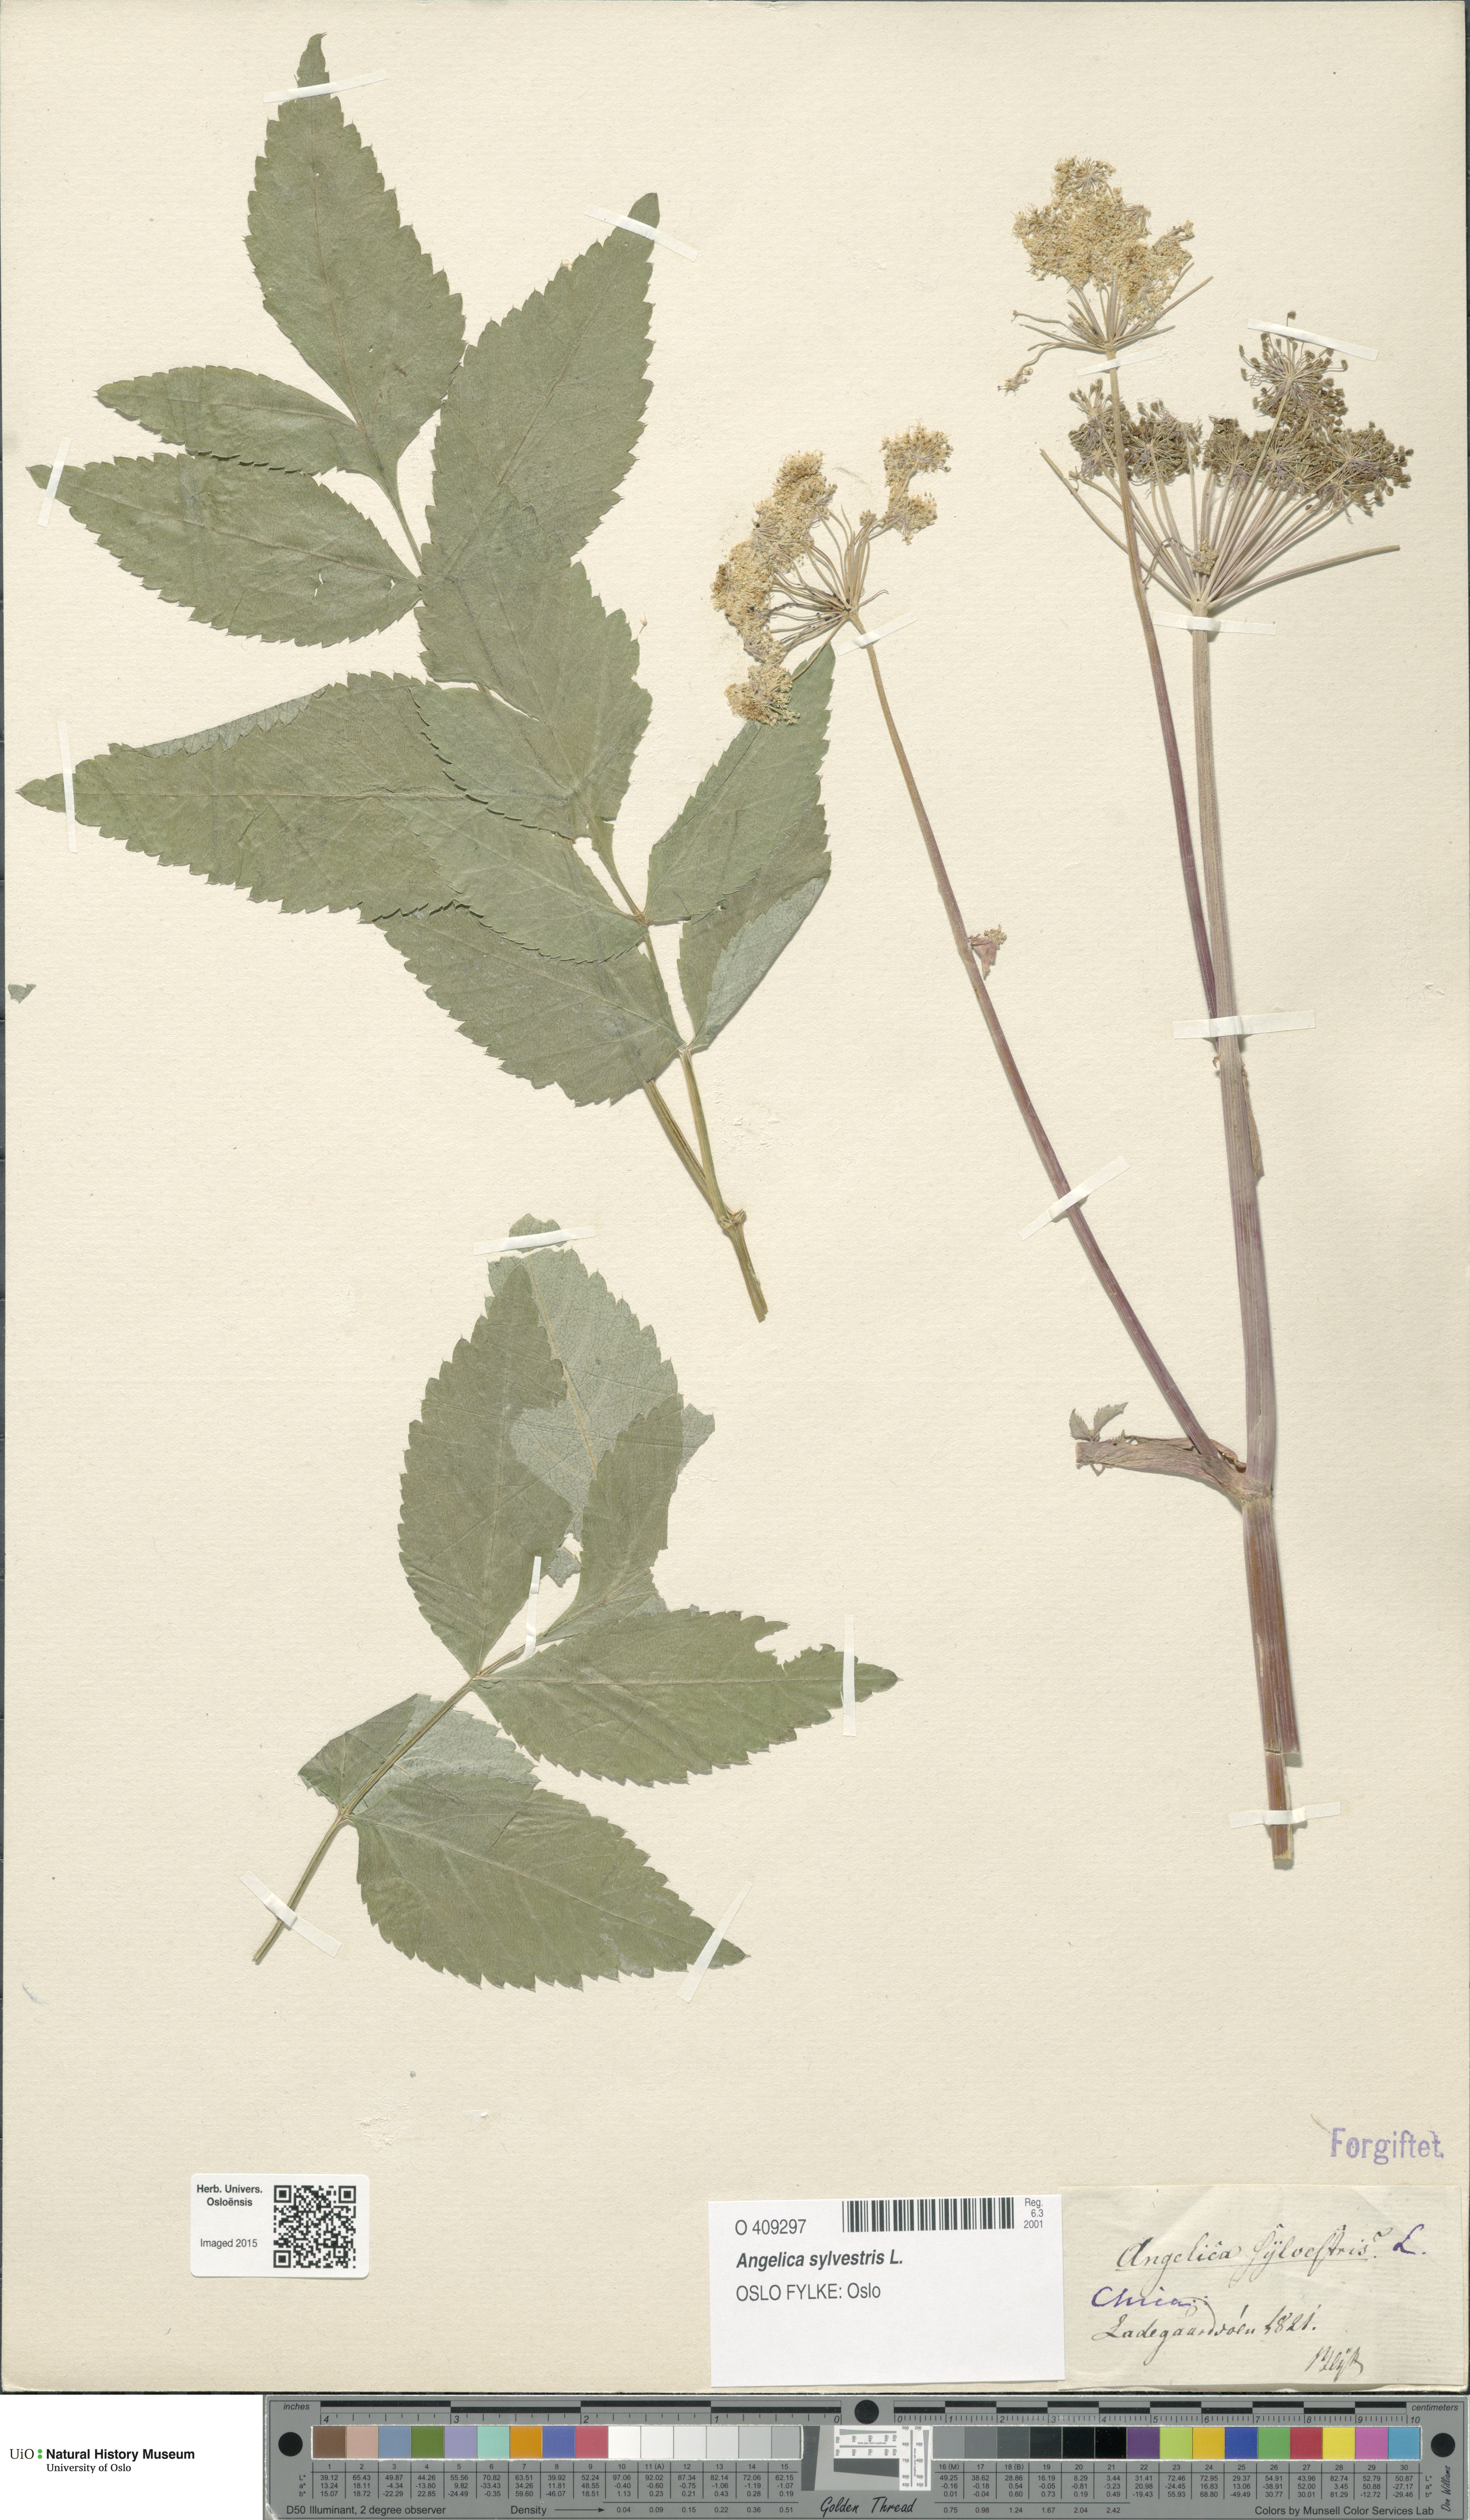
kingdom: Plantae
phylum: Tracheophyta
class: Magnoliopsida
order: Apiales
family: Apiaceae
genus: Angelica
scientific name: Angelica sylvestris
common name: Wild angelica
